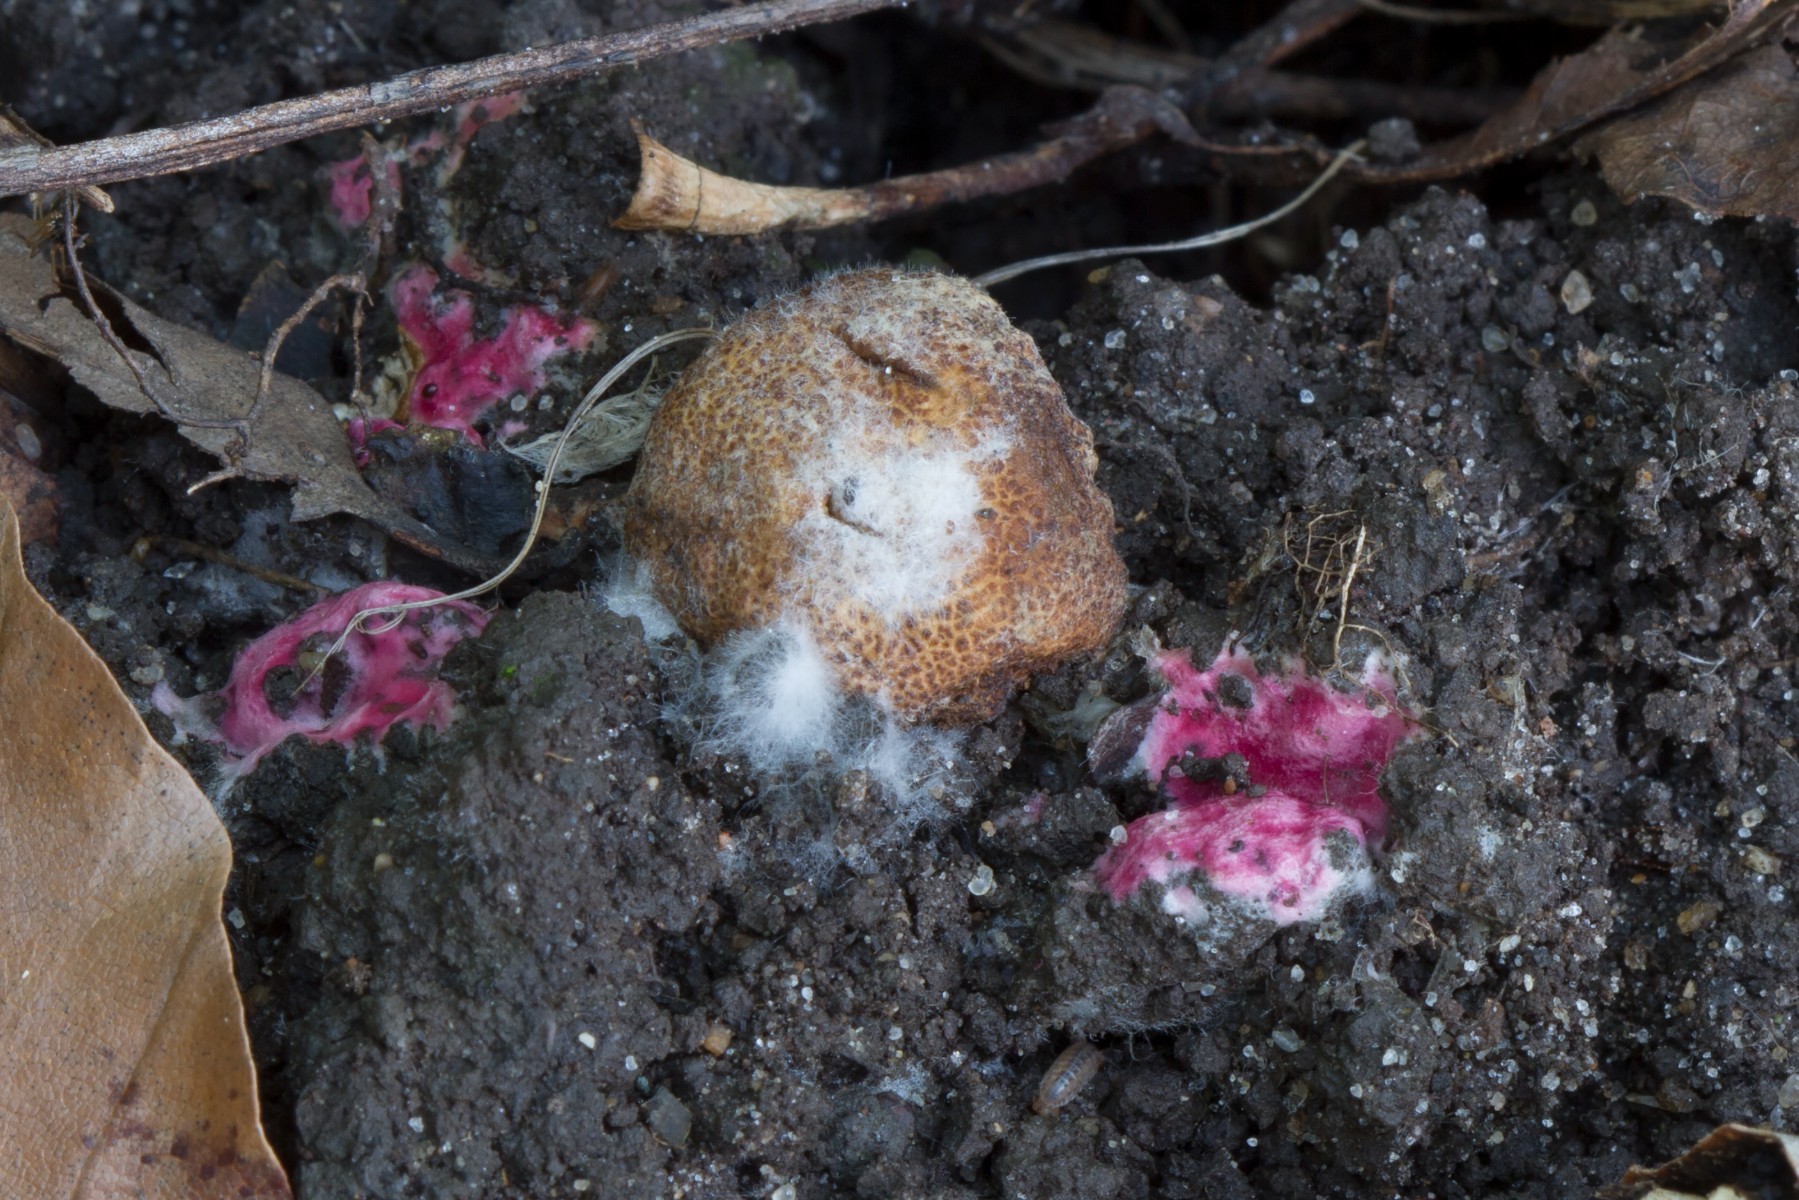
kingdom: Fungi
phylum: Ascomycota
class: Sordariomycetes
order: Hypocreales
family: Hypocreaceae
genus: Hypomyces
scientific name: Hypomyces rosellus
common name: rosa snylteskorpe
